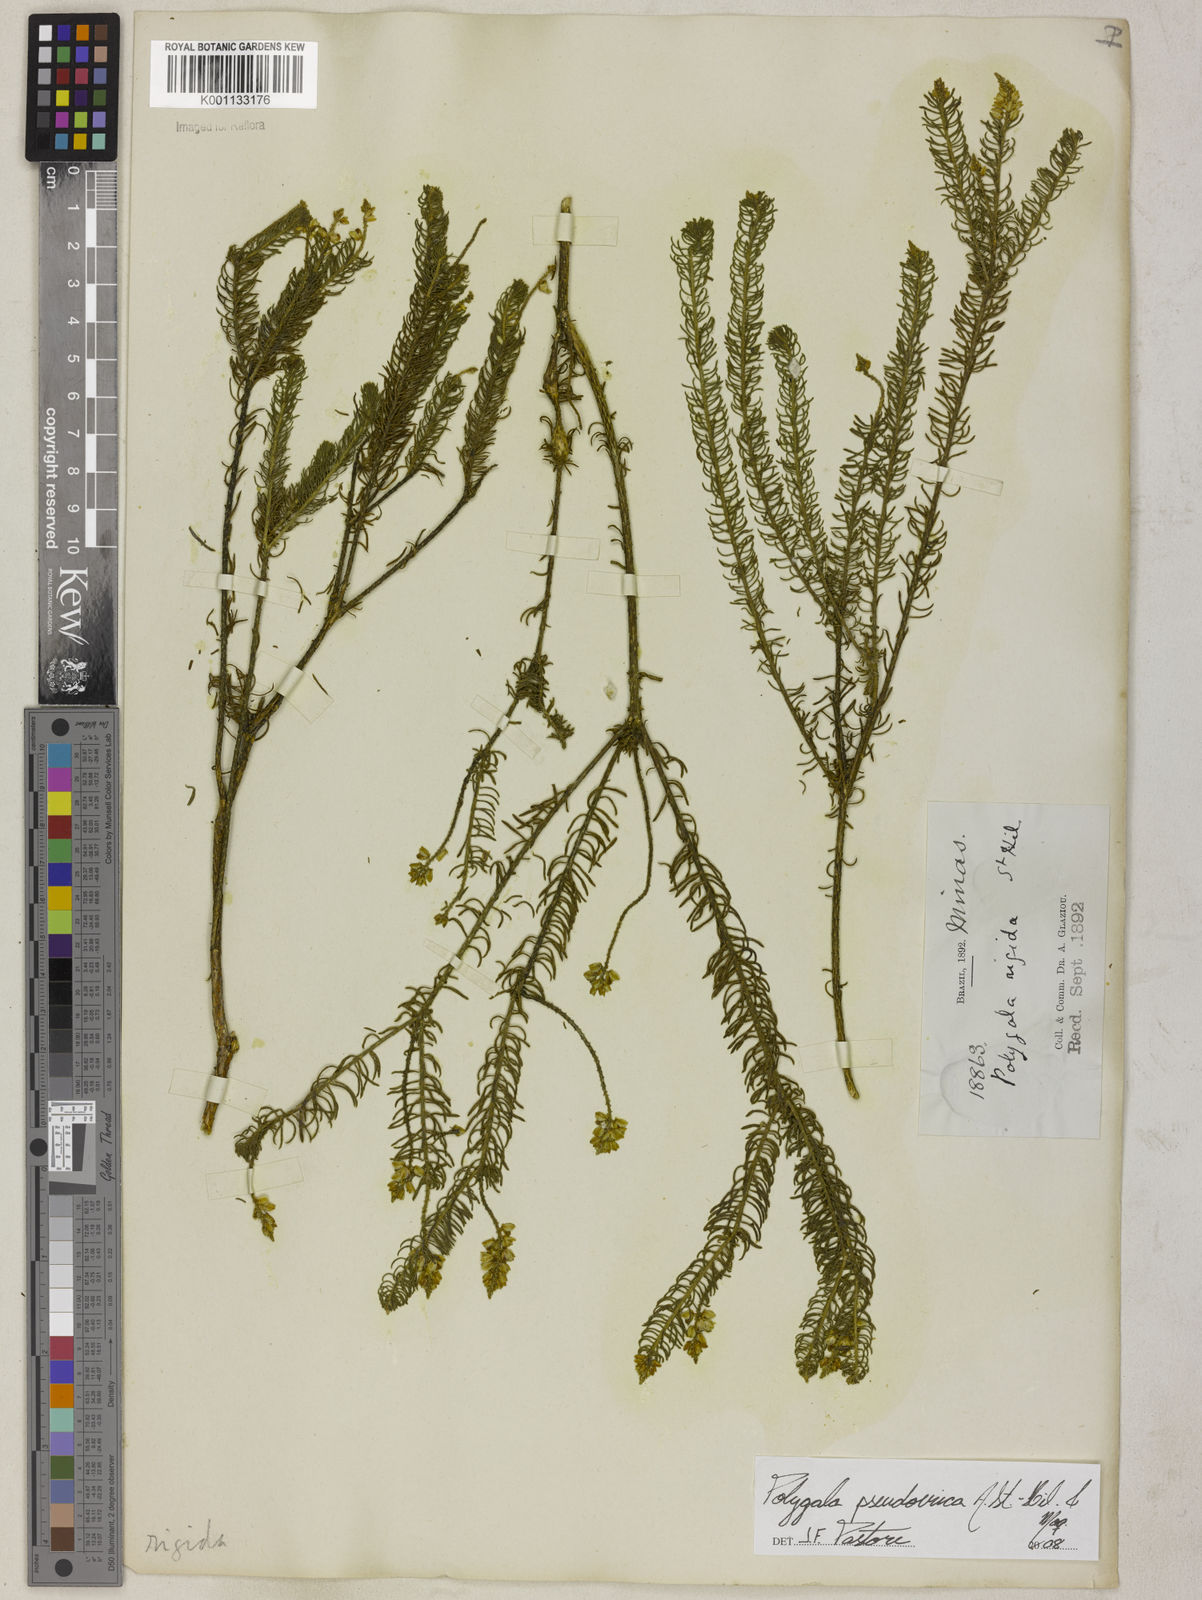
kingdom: Plantae
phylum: Tracheophyta
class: Magnoliopsida
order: Fabales
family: Polygalaceae
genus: Polygala
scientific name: Polygala pseudoerica
